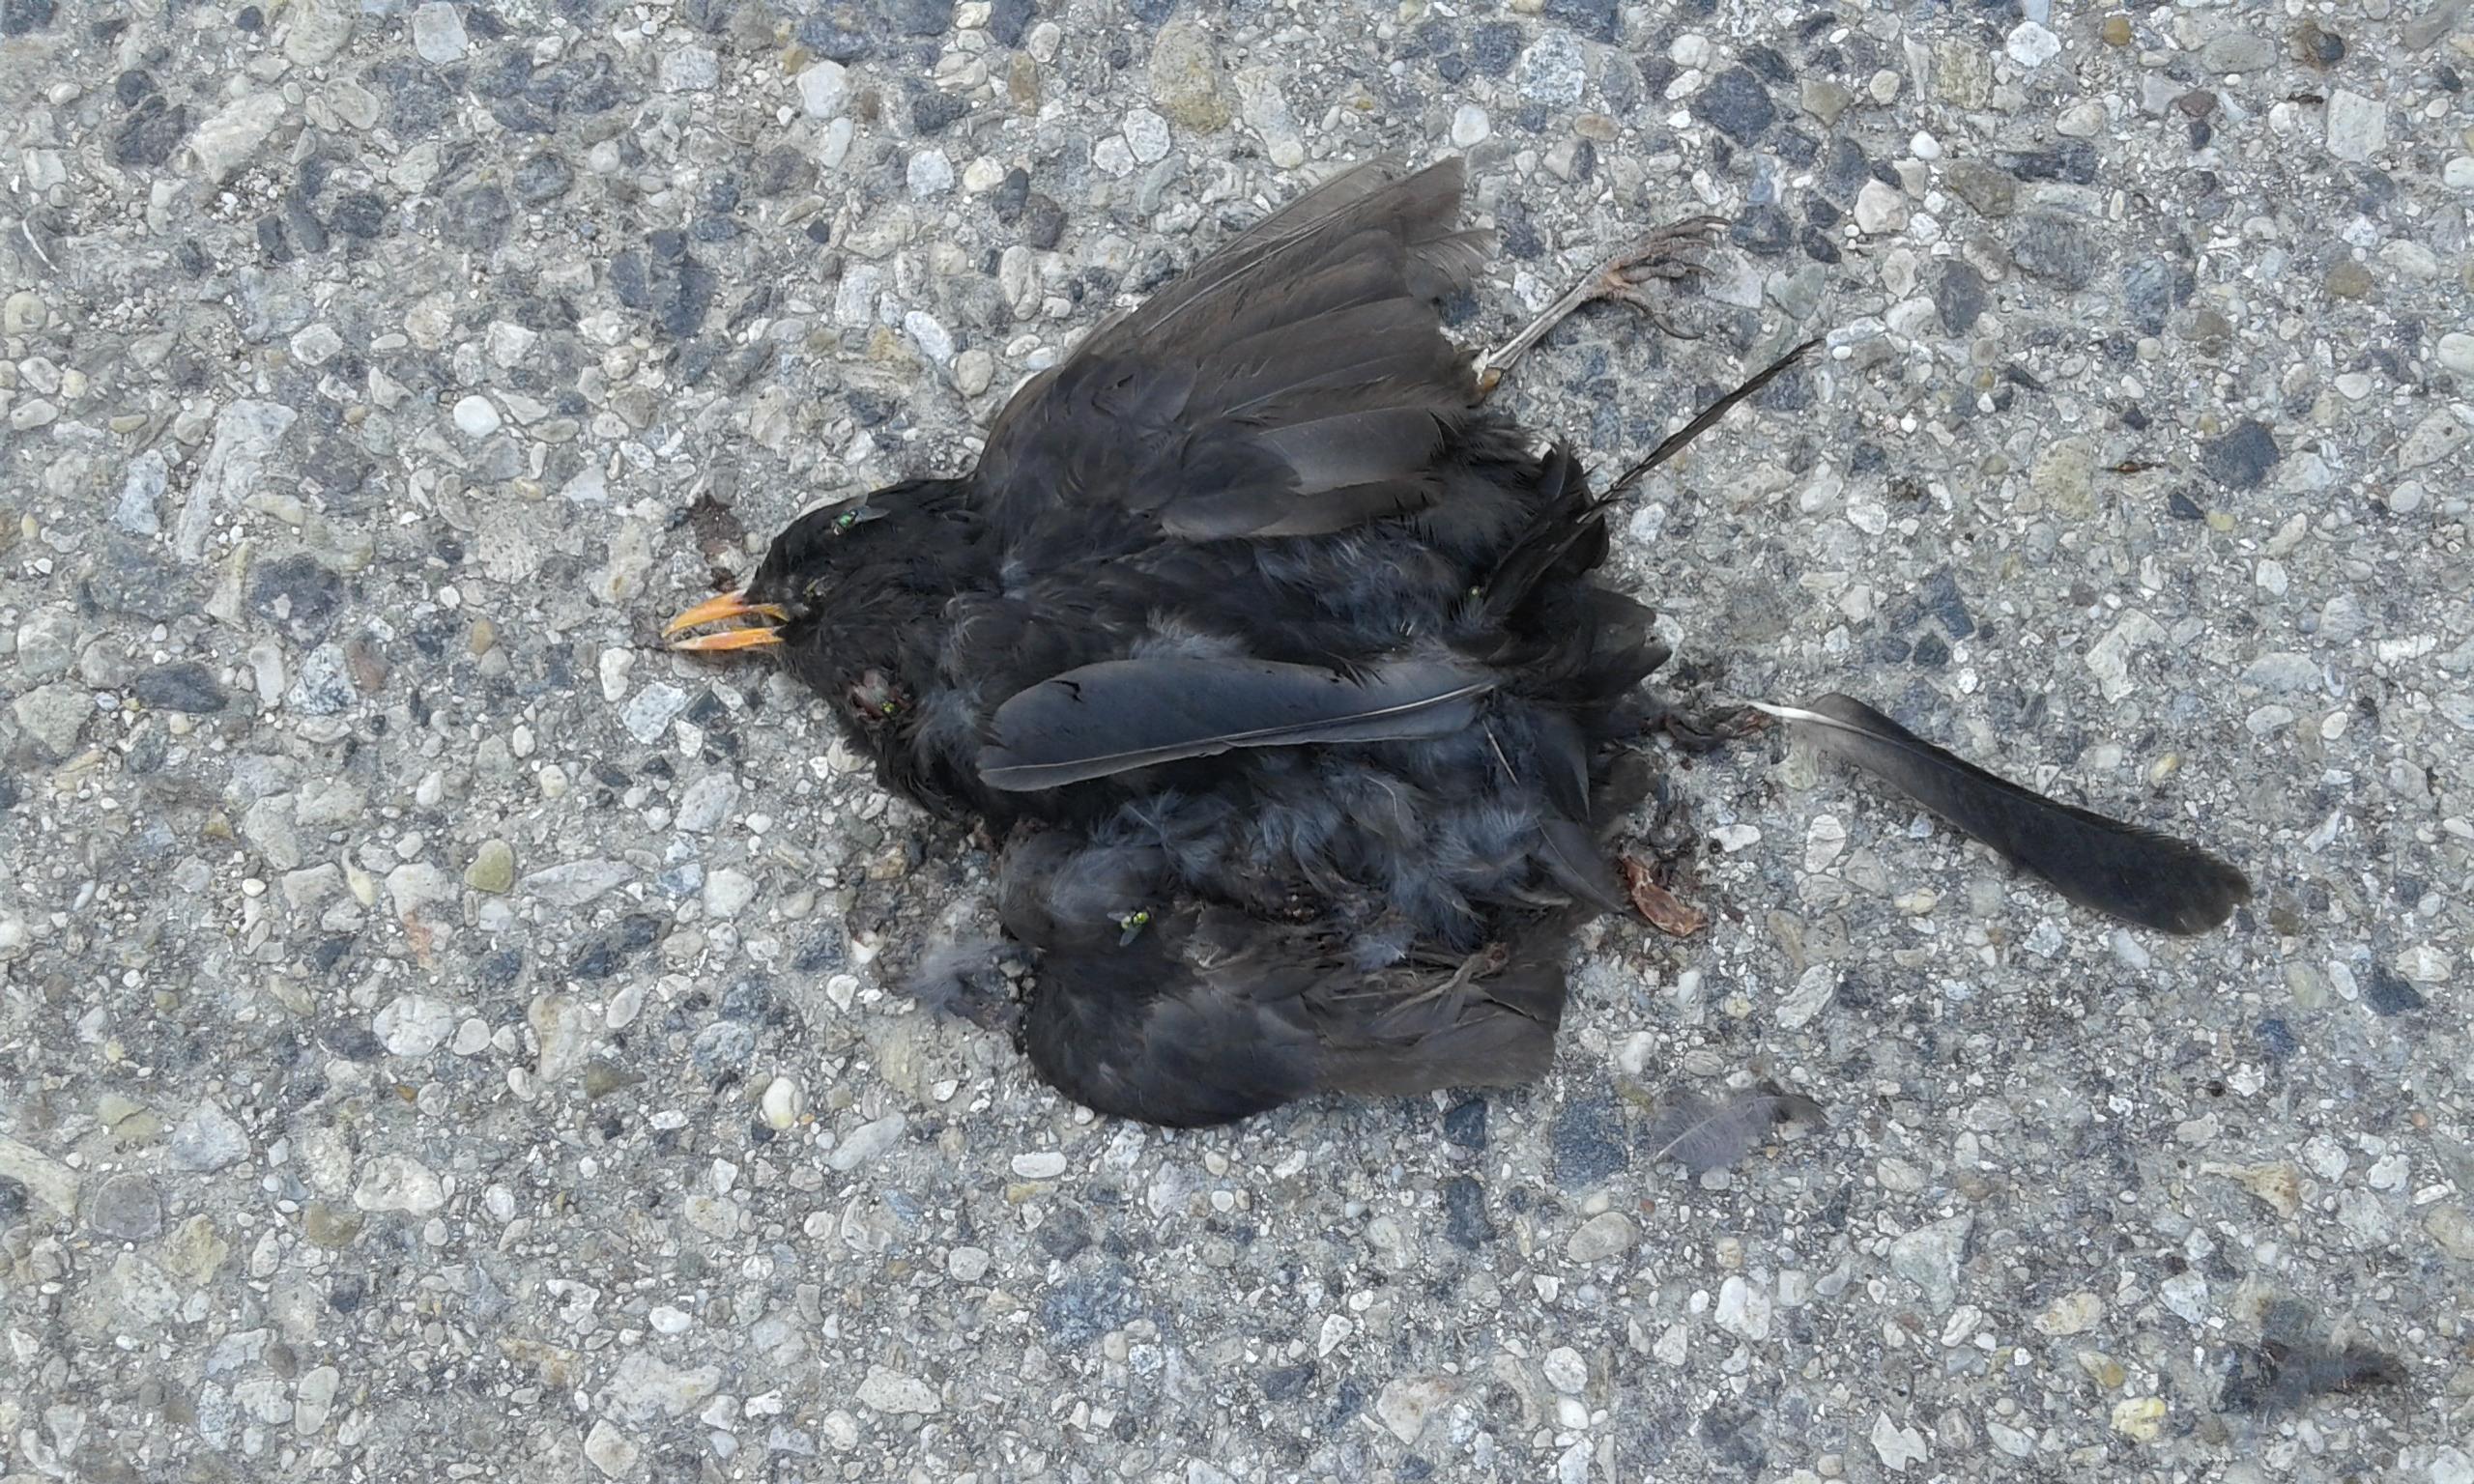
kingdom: Animalia
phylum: Chordata
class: Aves
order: Passeriformes
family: Turdidae
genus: Turdus
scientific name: Turdus merula
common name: Common blackbird
